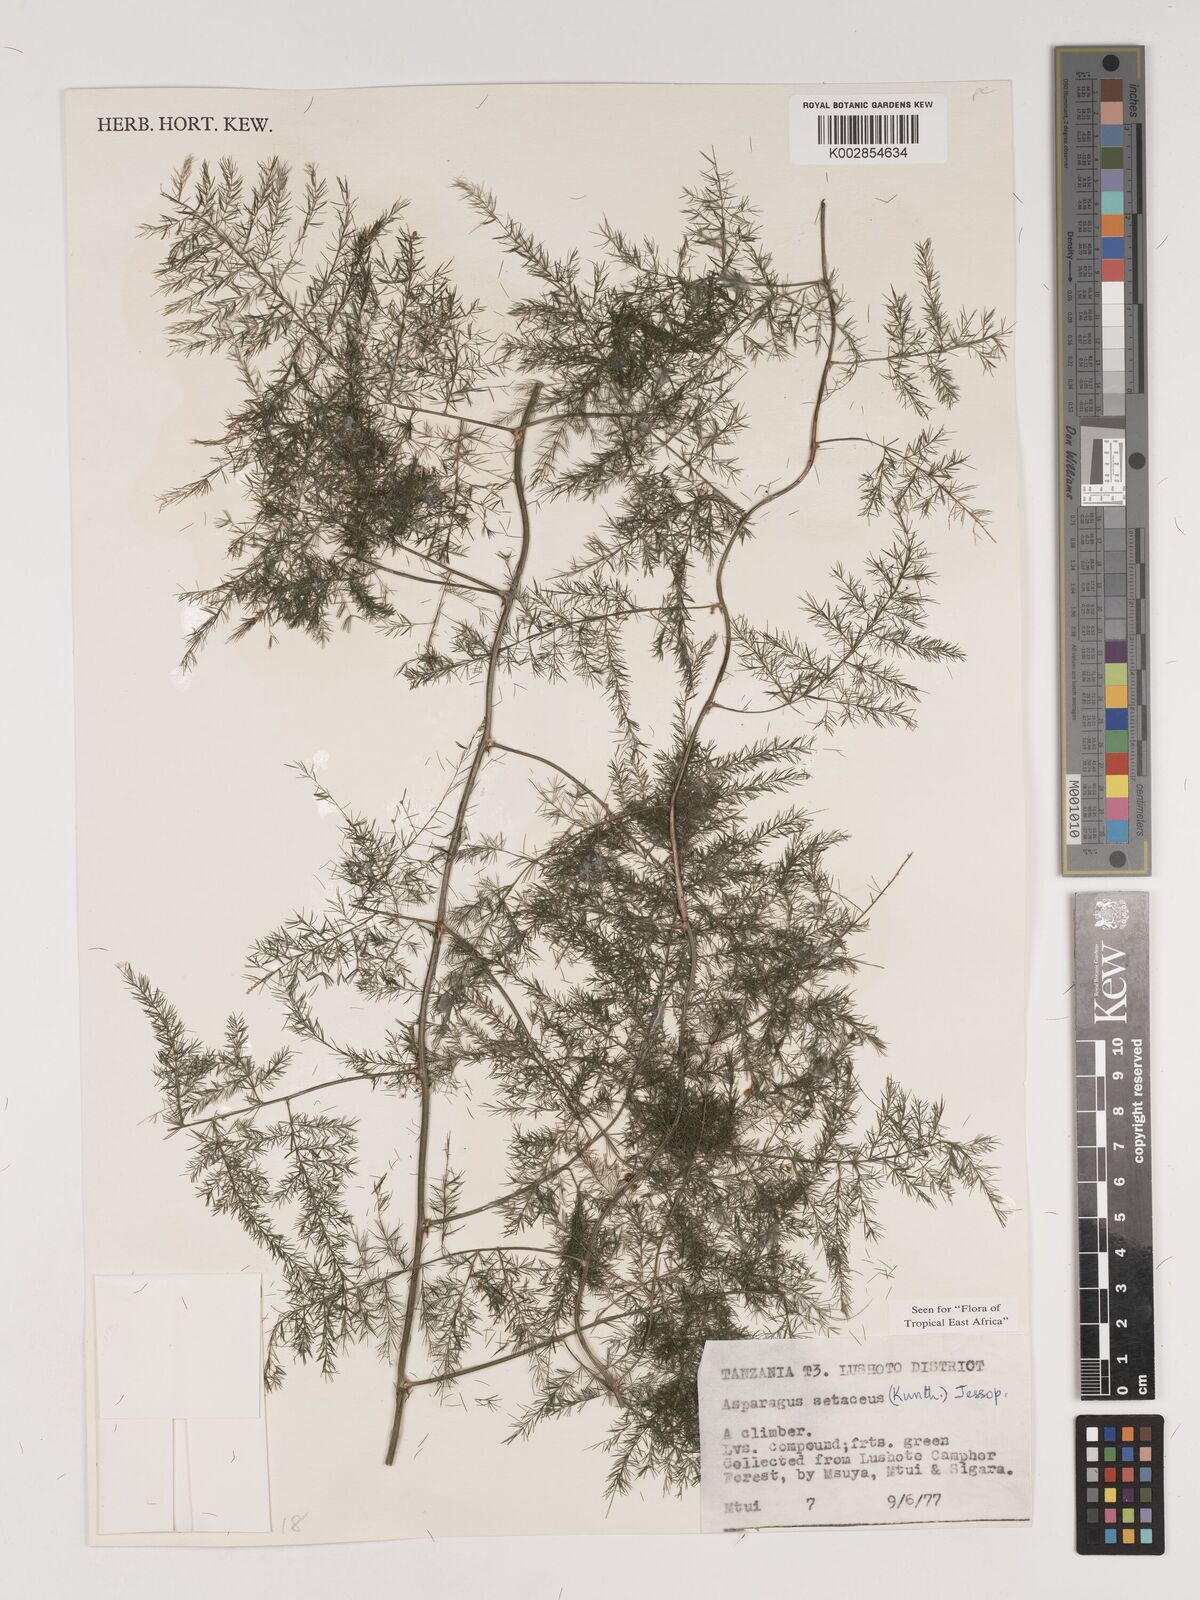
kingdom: Plantae
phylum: Tracheophyta
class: Liliopsida
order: Asparagales
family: Asparagaceae
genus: Asparagus
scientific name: Asparagus setaceus
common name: Common asparagus fern
